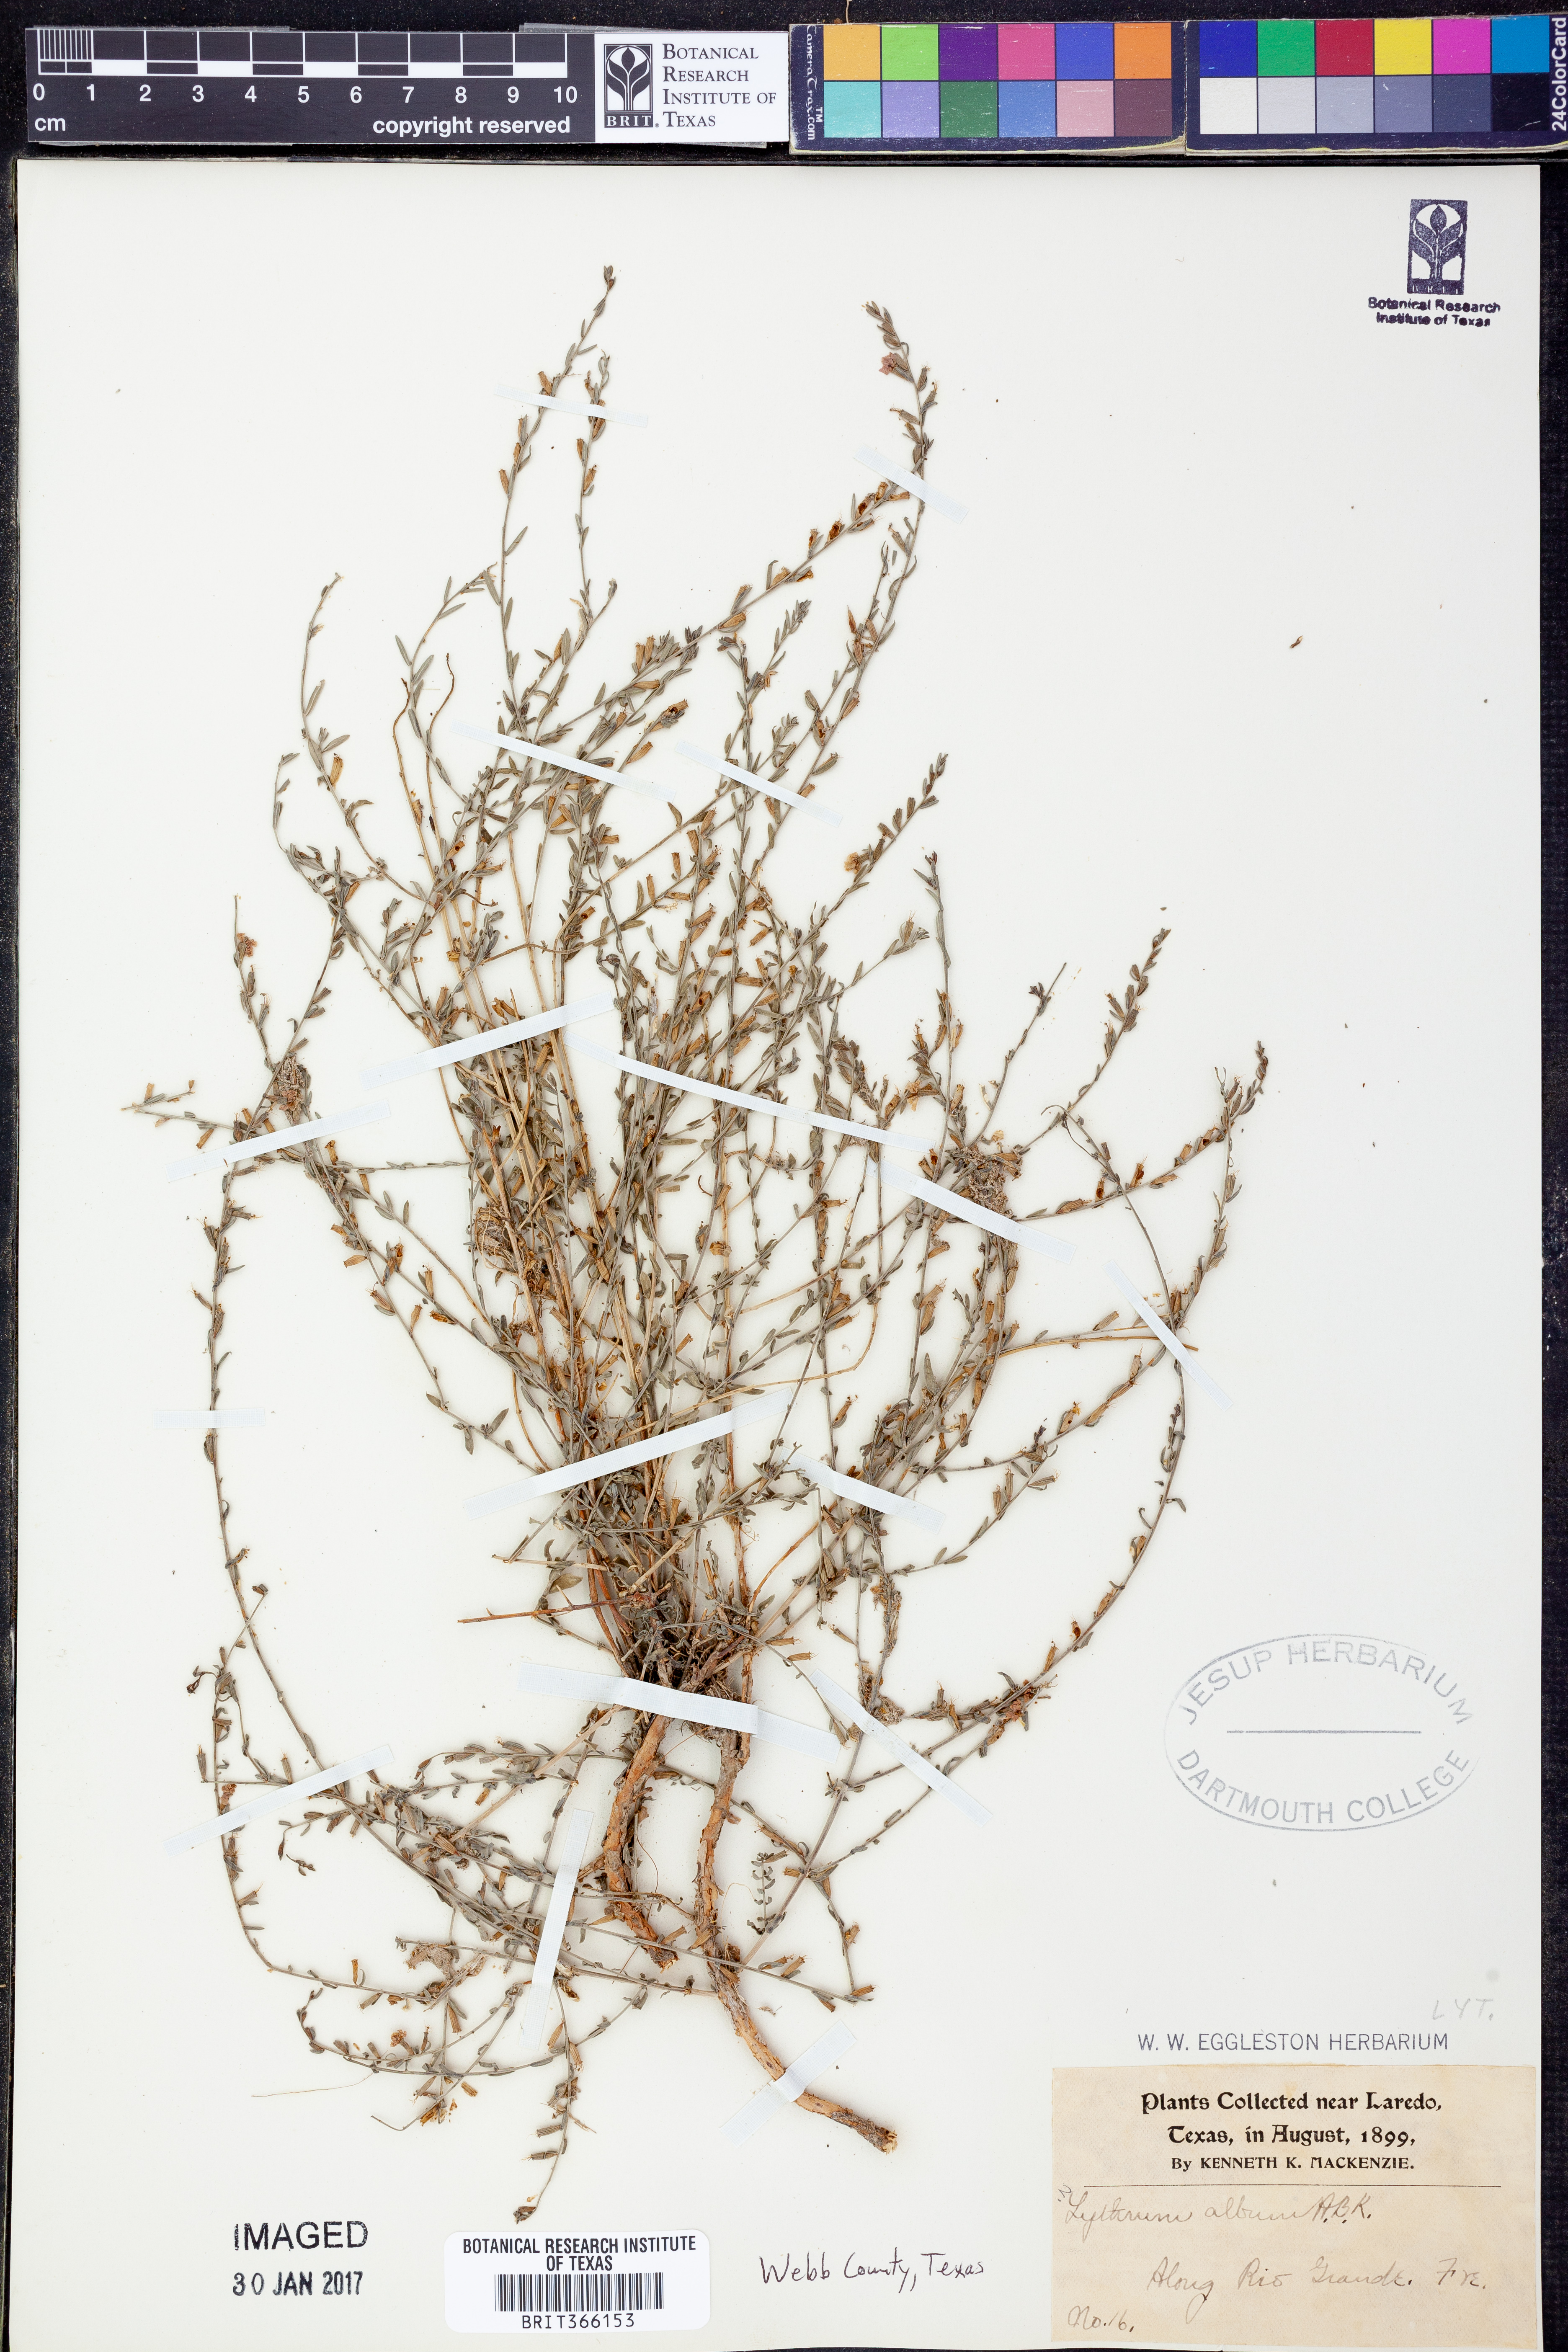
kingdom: Plantae
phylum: Tracheophyta
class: Magnoliopsida
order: Myrtales
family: Lythraceae
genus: Lythrum
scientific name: Lythrum album
